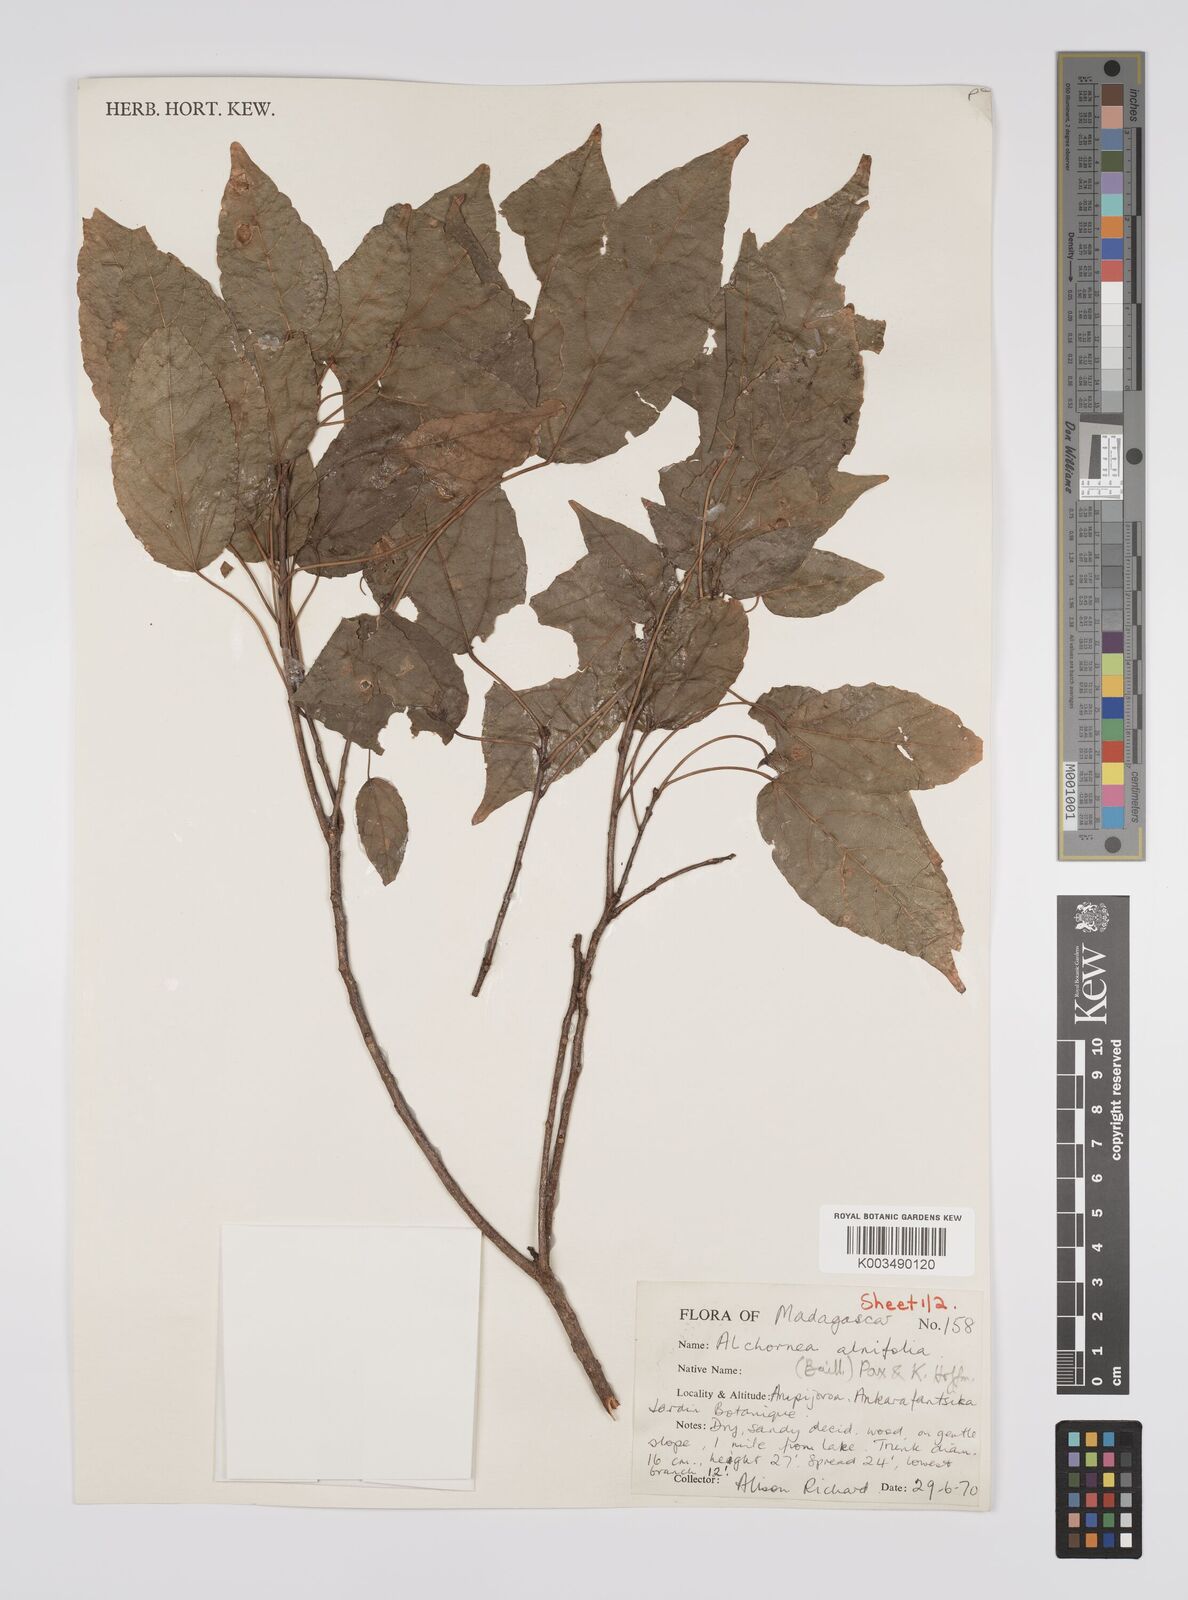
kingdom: Plantae
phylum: Tracheophyta
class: Magnoliopsida
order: Malpighiales
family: Euphorbiaceae
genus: Alchornea
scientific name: Alchornea alnifolia
